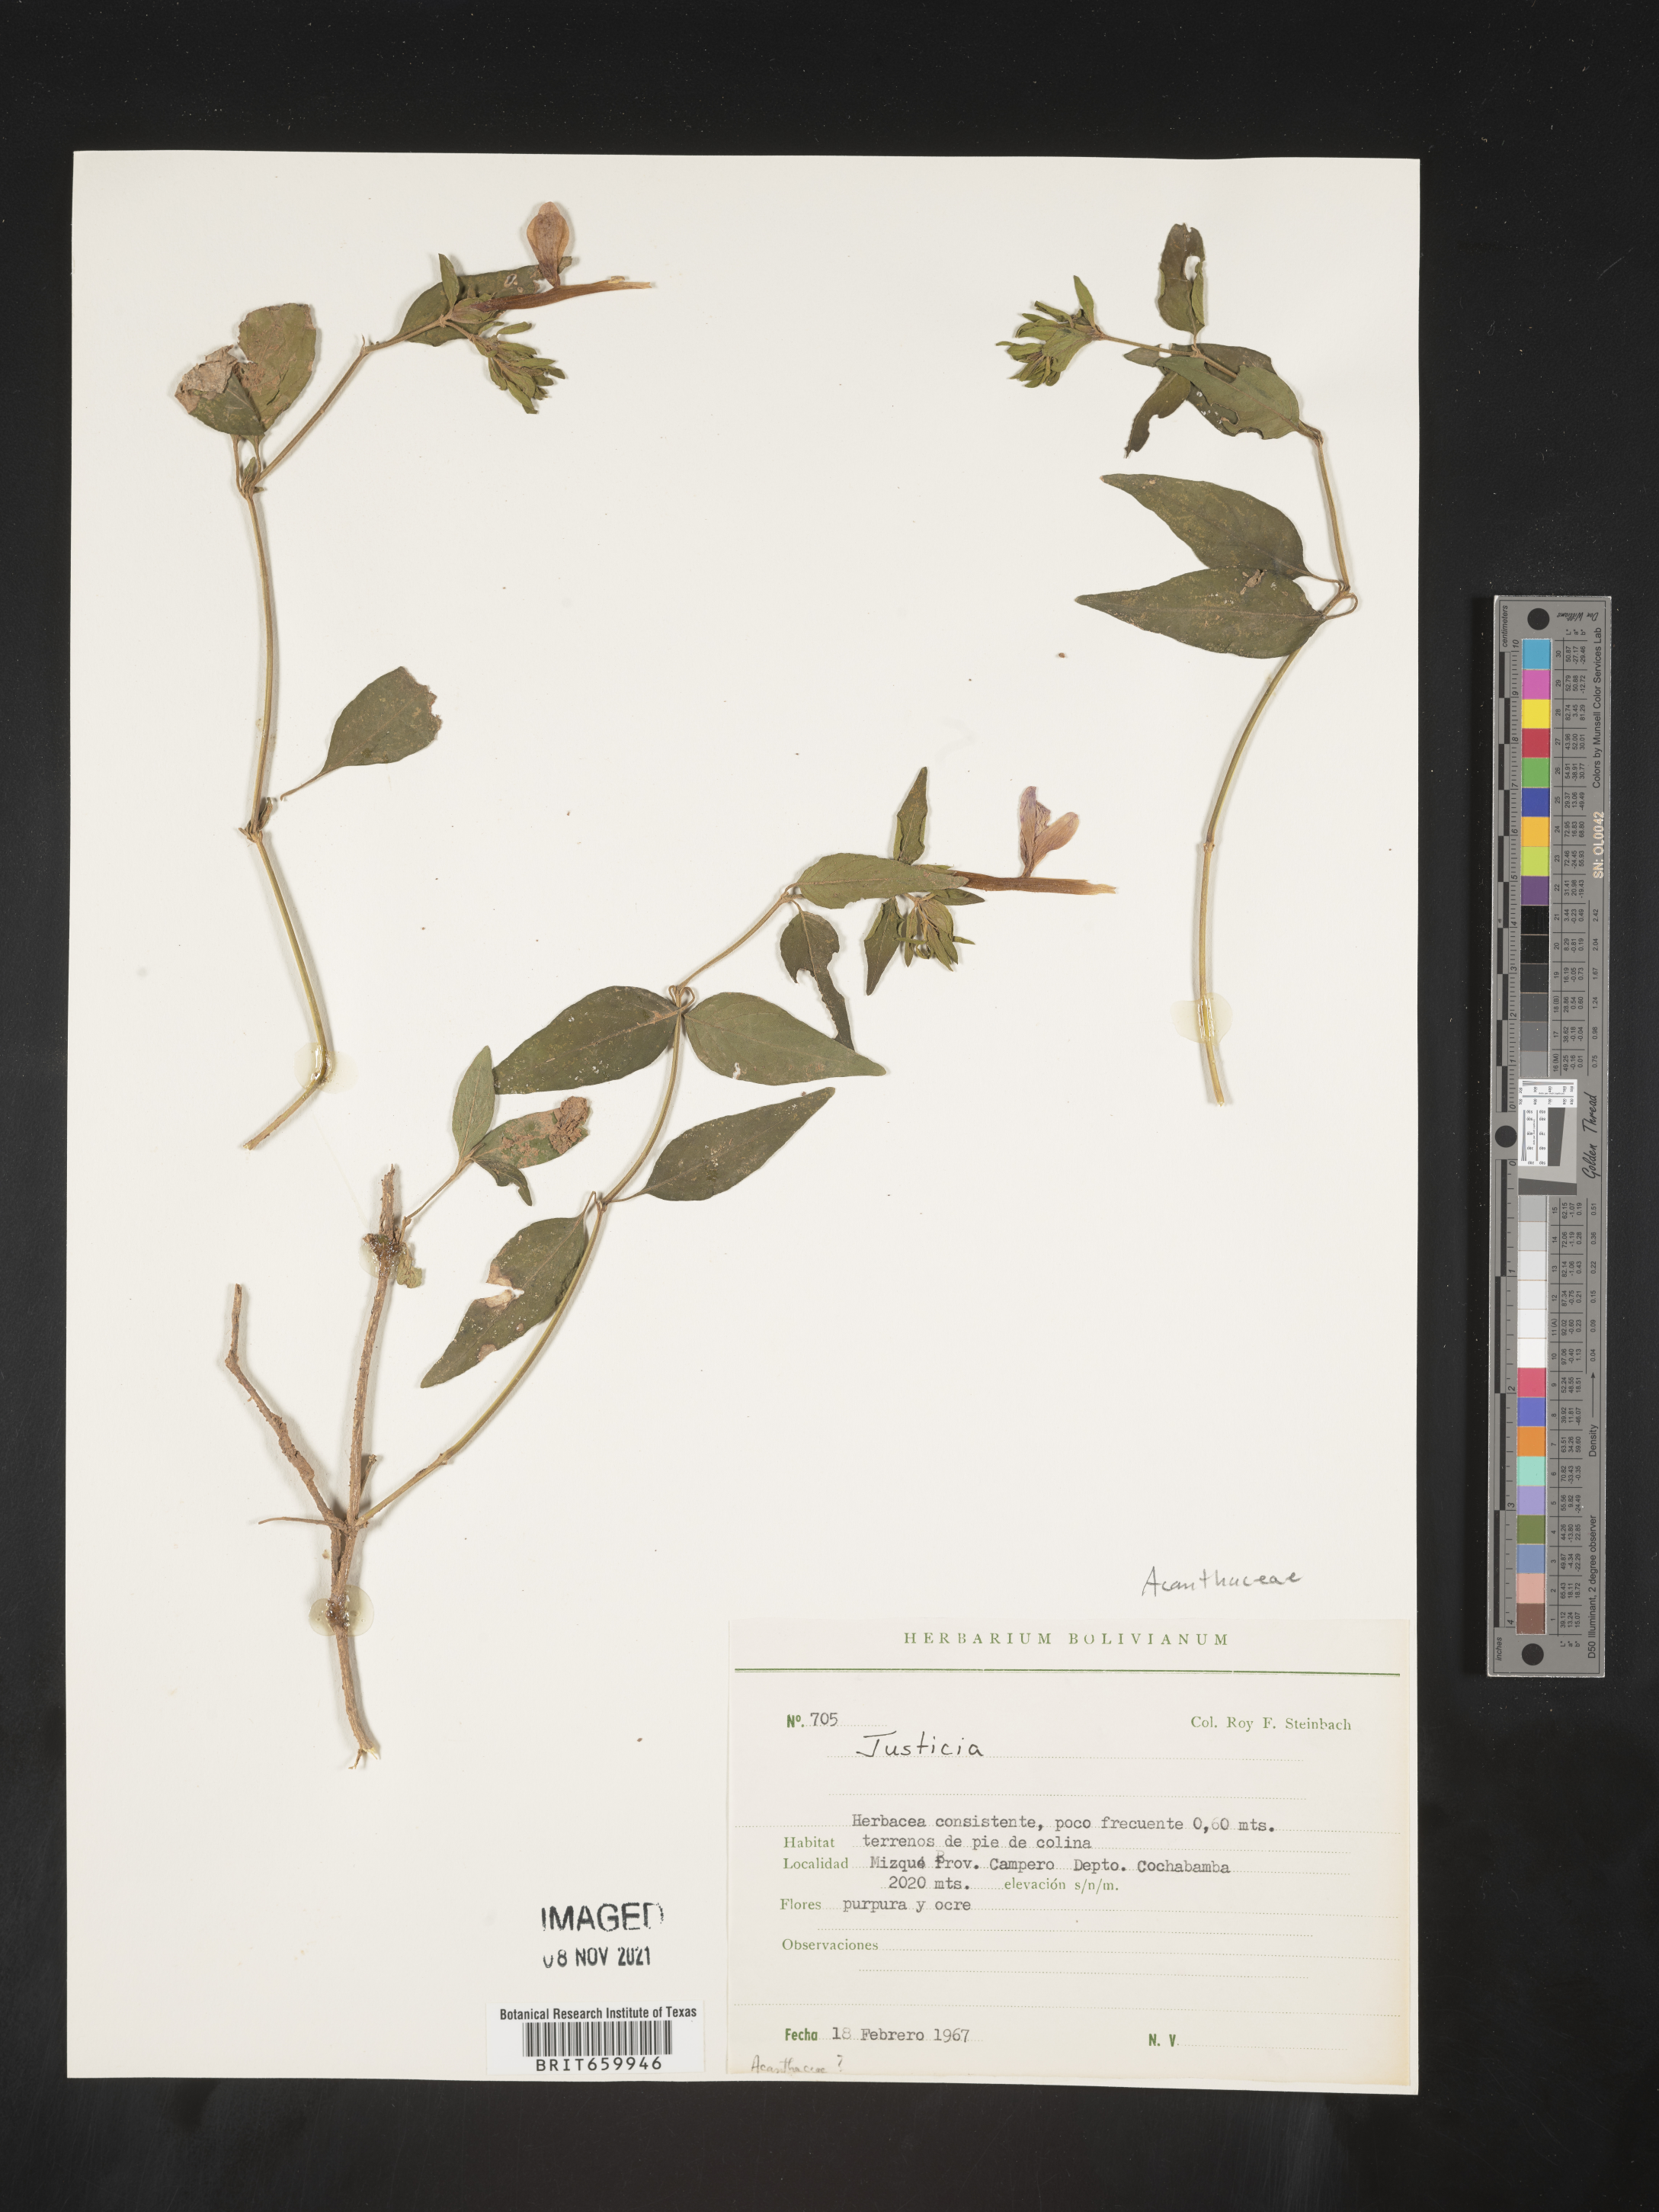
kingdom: Plantae
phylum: Tracheophyta
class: Magnoliopsida
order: Lamiales
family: Acanthaceae
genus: Justicia
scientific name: Justicia
